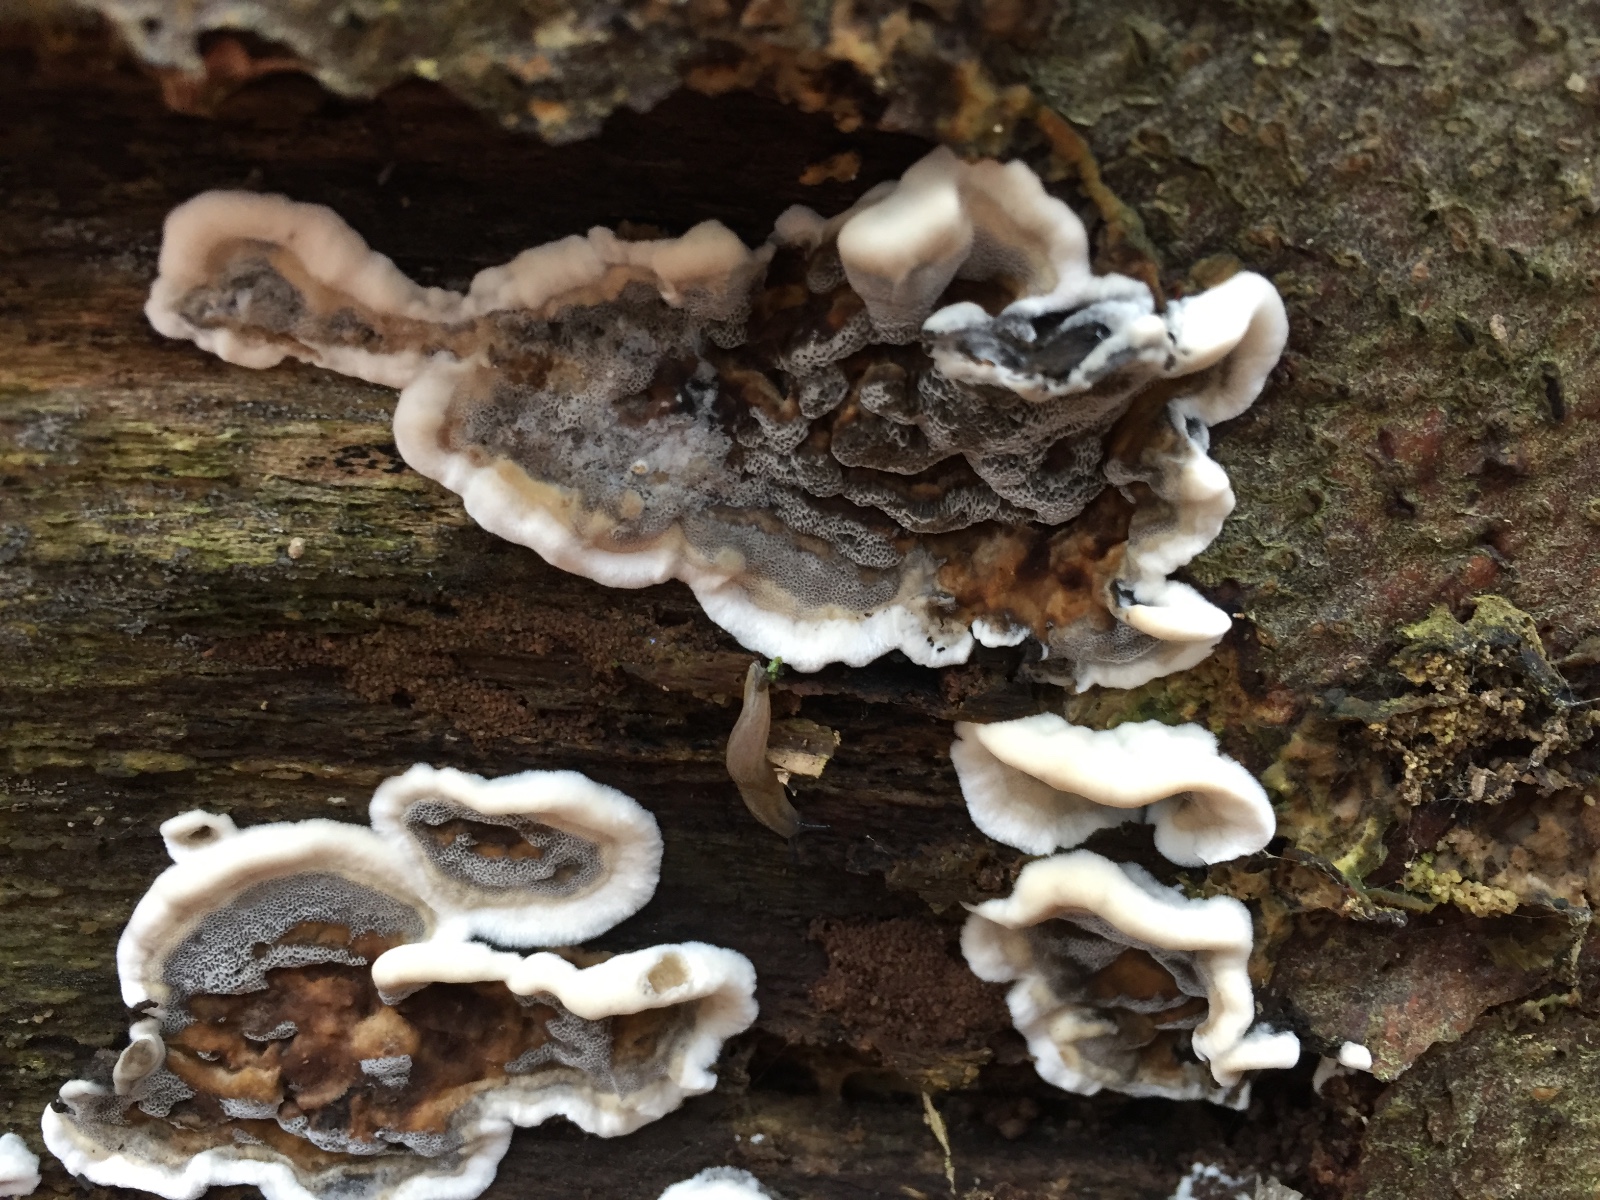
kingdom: Fungi
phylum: Basidiomycota
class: Agaricomycetes
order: Polyporales
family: Phanerochaetaceae
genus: Bjerkandera
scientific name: Bjerkandera adusta
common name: sveden sodporesvamp
